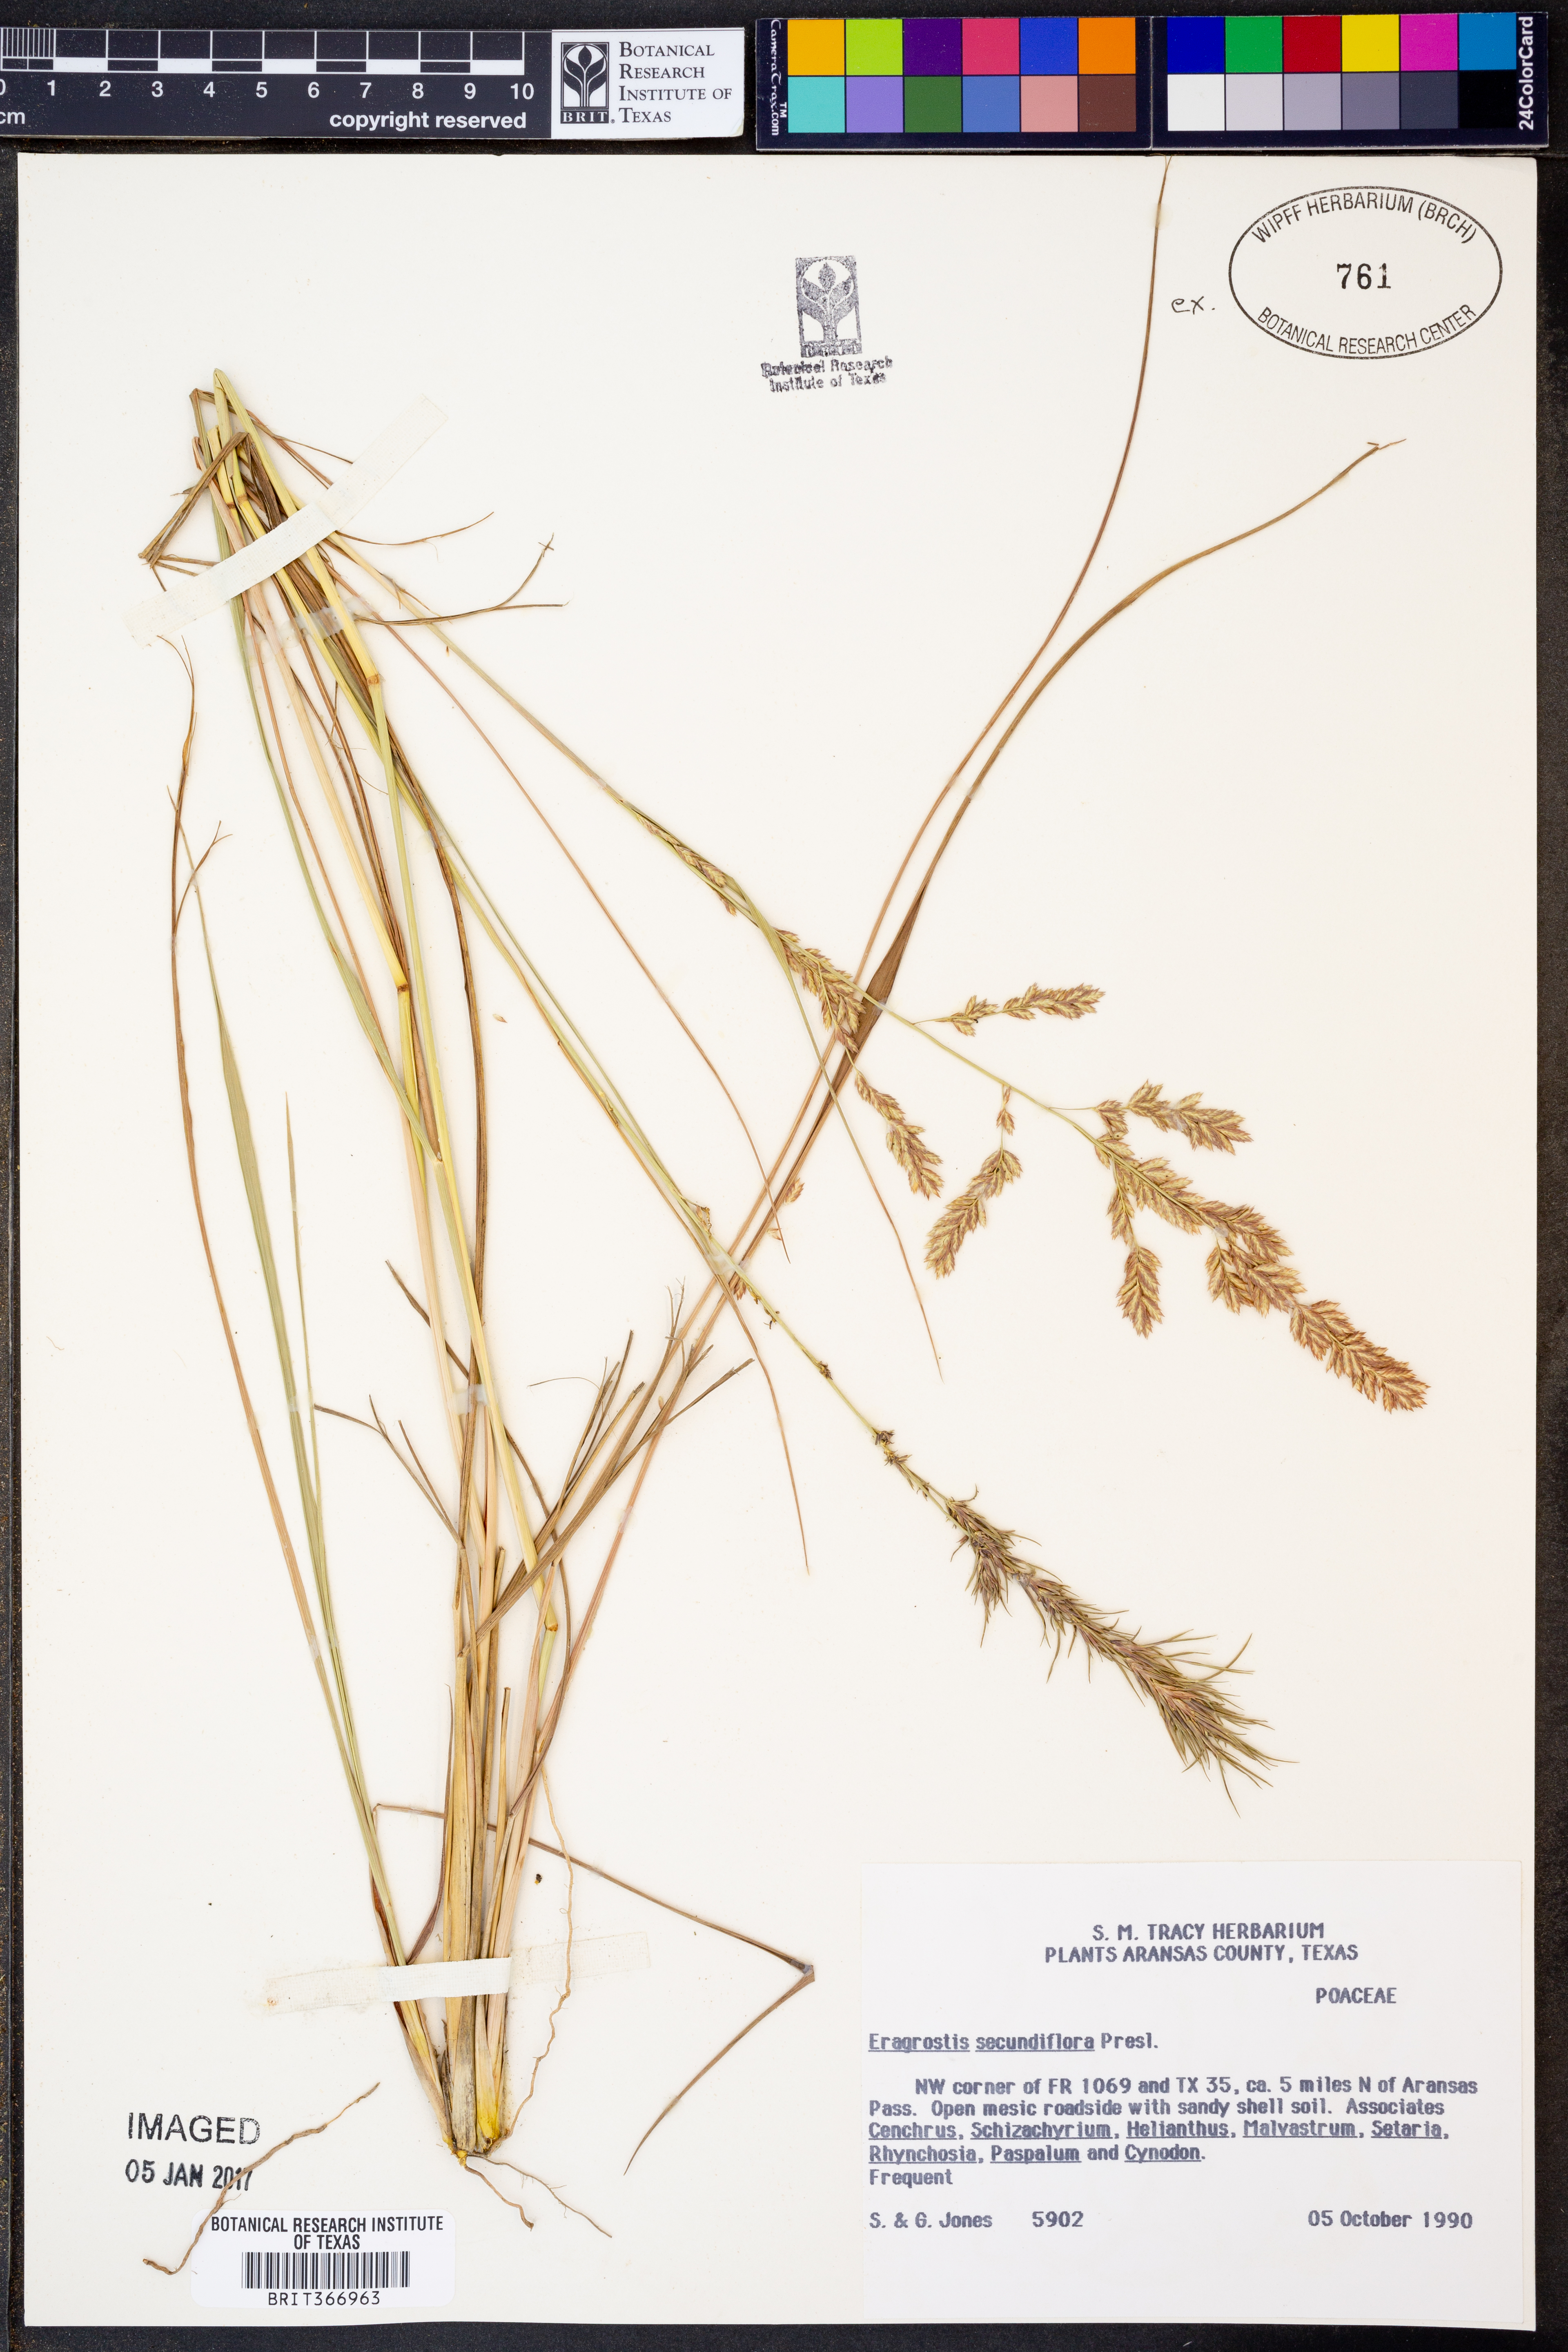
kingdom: Plantae
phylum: Tracheophyta
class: Liliopsida
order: Poales
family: Poaceae
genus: Eragrostis
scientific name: Eragrostis secundiflora
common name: Red love grass
